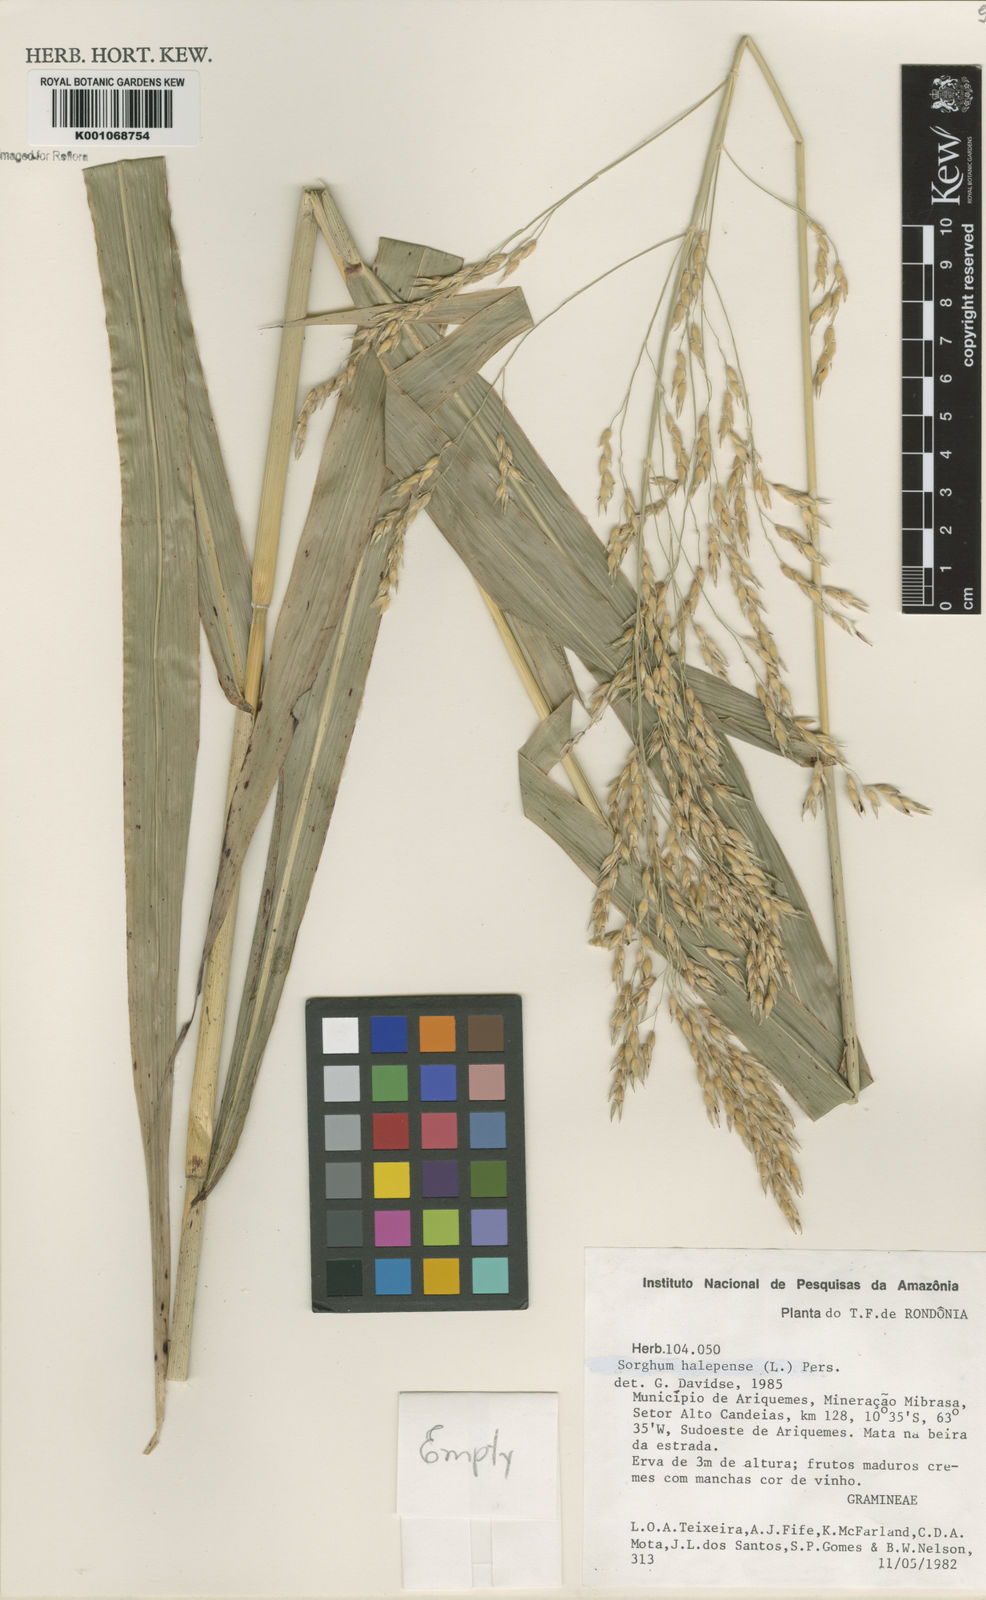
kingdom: Plantae
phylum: Tracheophyta
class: Liliopsida
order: Poales
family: Poaceae
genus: Sorghum
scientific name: Sorghum halepense
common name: Johnson-grass
